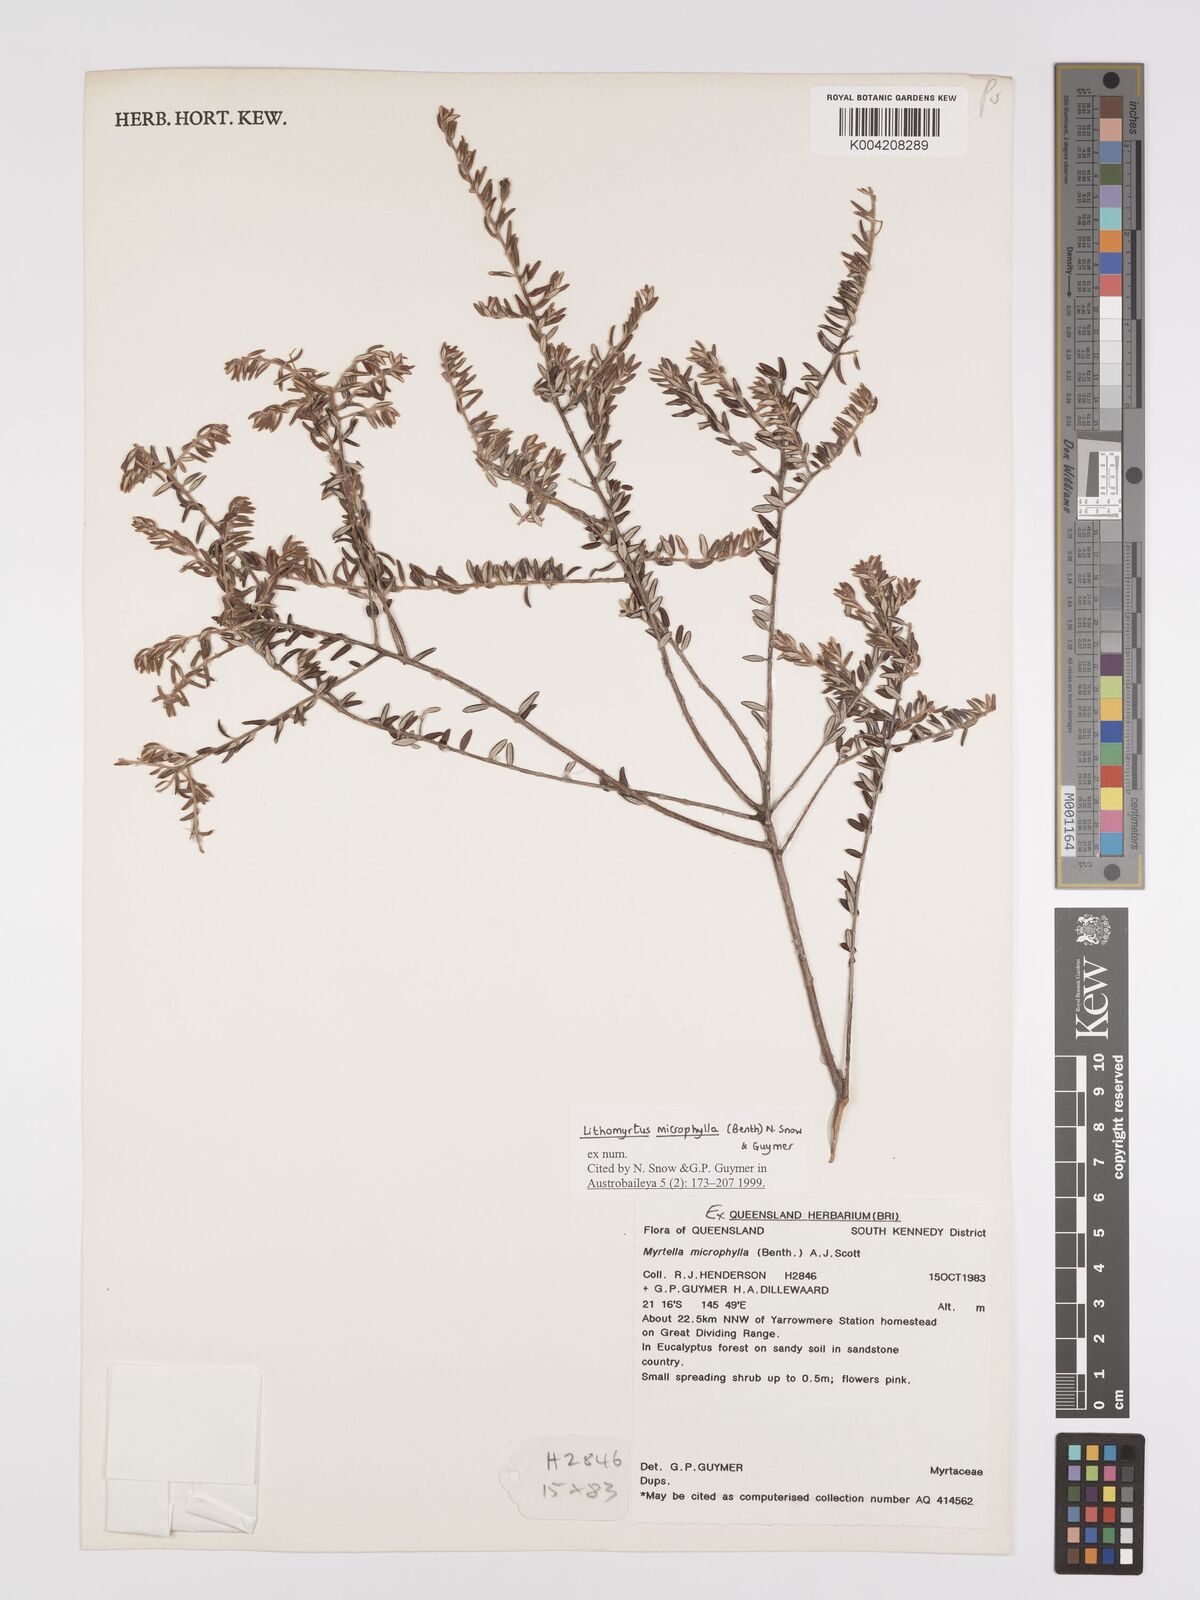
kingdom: Plantae
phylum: Tracheophyta
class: Magnoliopsida
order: Myrtales
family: Myrtaceae
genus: Lithomyrtus
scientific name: Lithomyrtus microphylla
